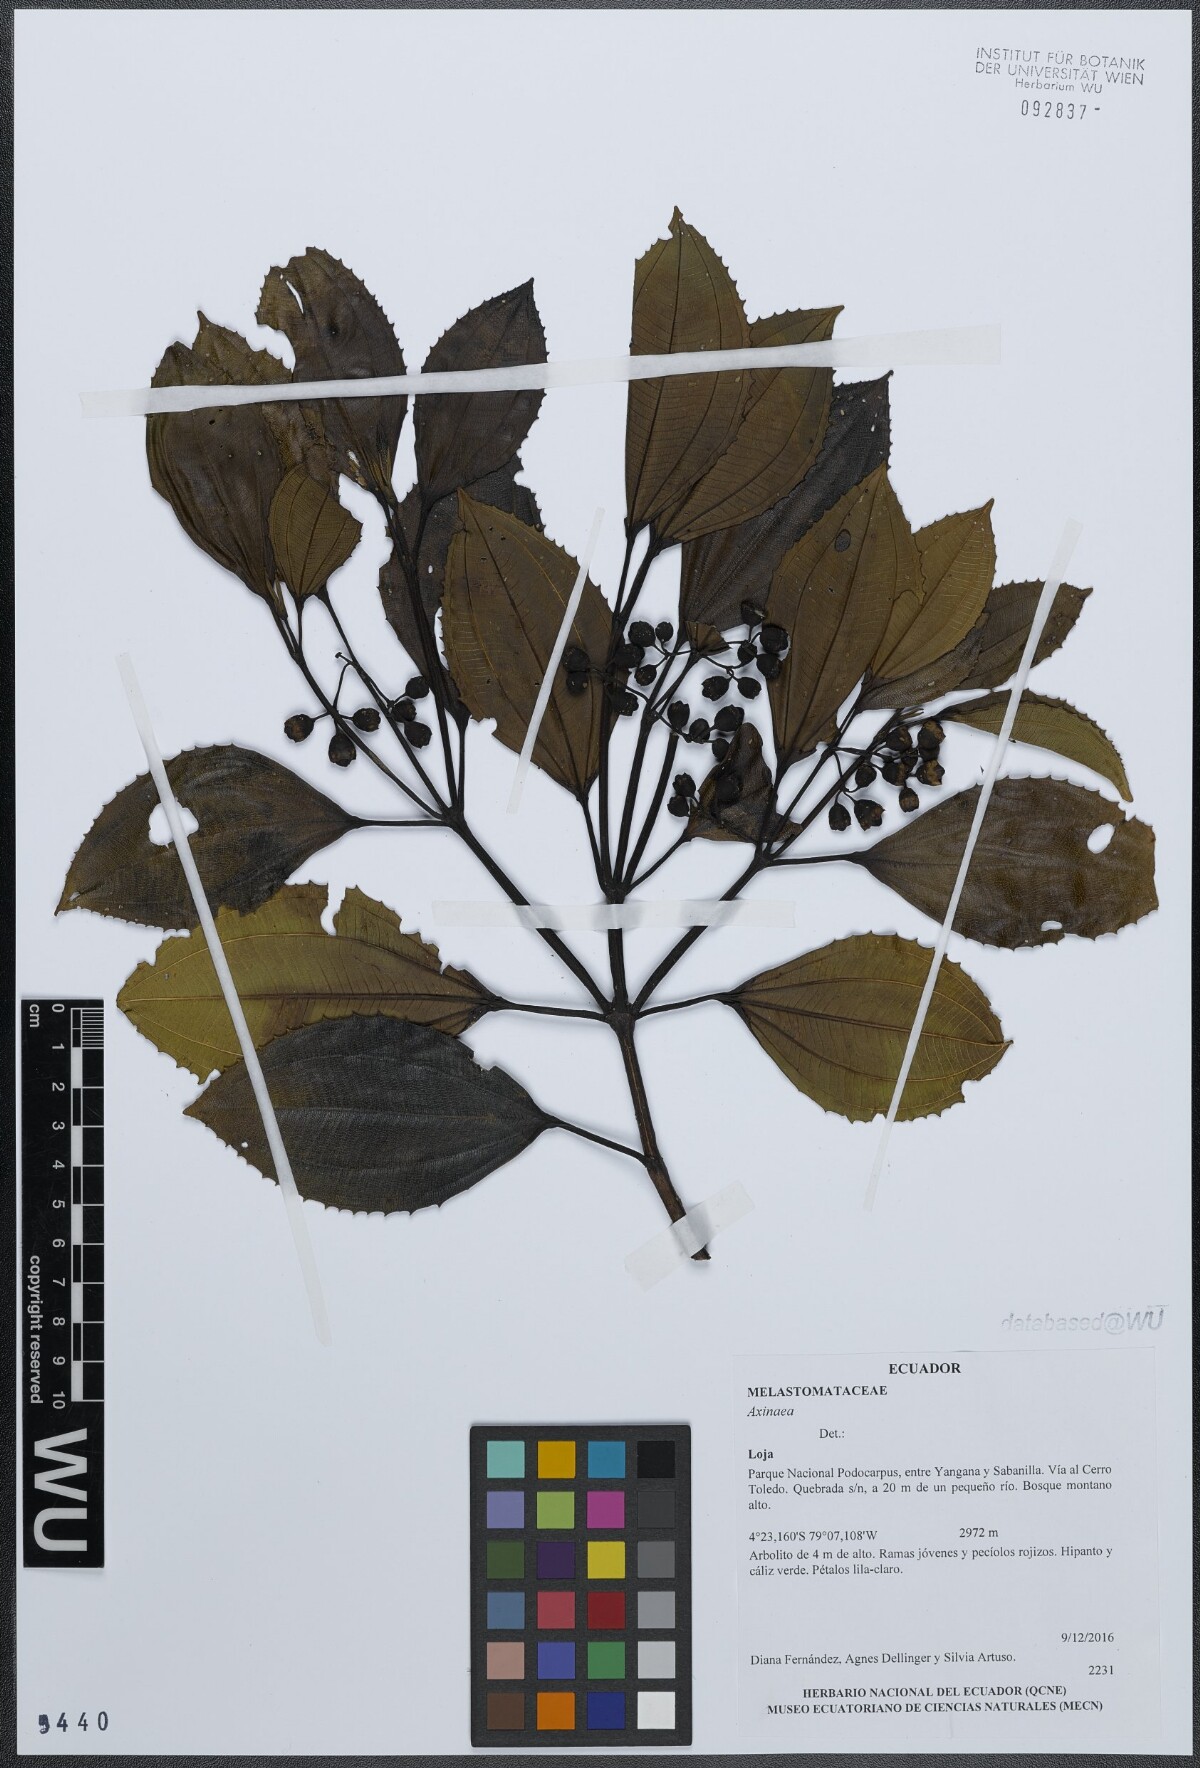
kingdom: Plantae
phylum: Tracheophyta
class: Magnoliopsida
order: Myrtales
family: Melastomataceae
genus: Axinaea
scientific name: Axinaea
